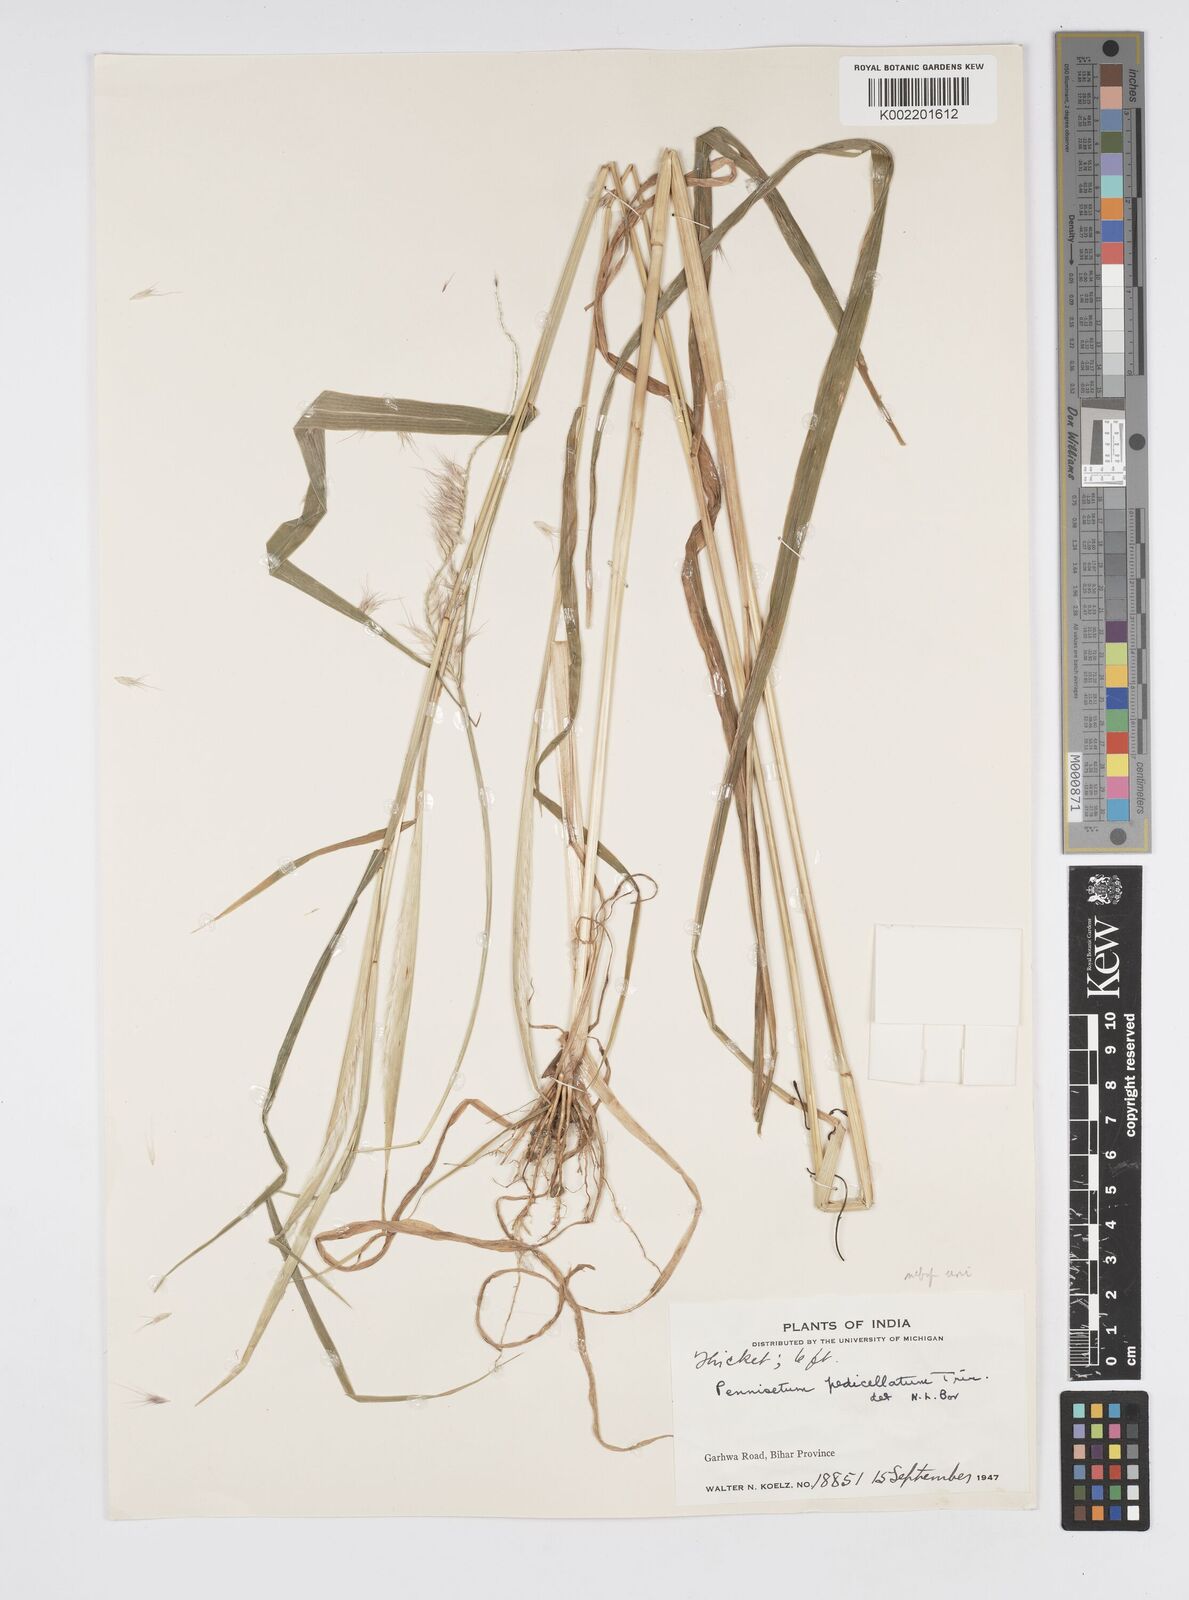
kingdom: Plantae
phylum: Tracheophyta
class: Liliopsida
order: Poales
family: Poaceae
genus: Cenchrus
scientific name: Cenchrus pedicellatus
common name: Hairy fountain grass
